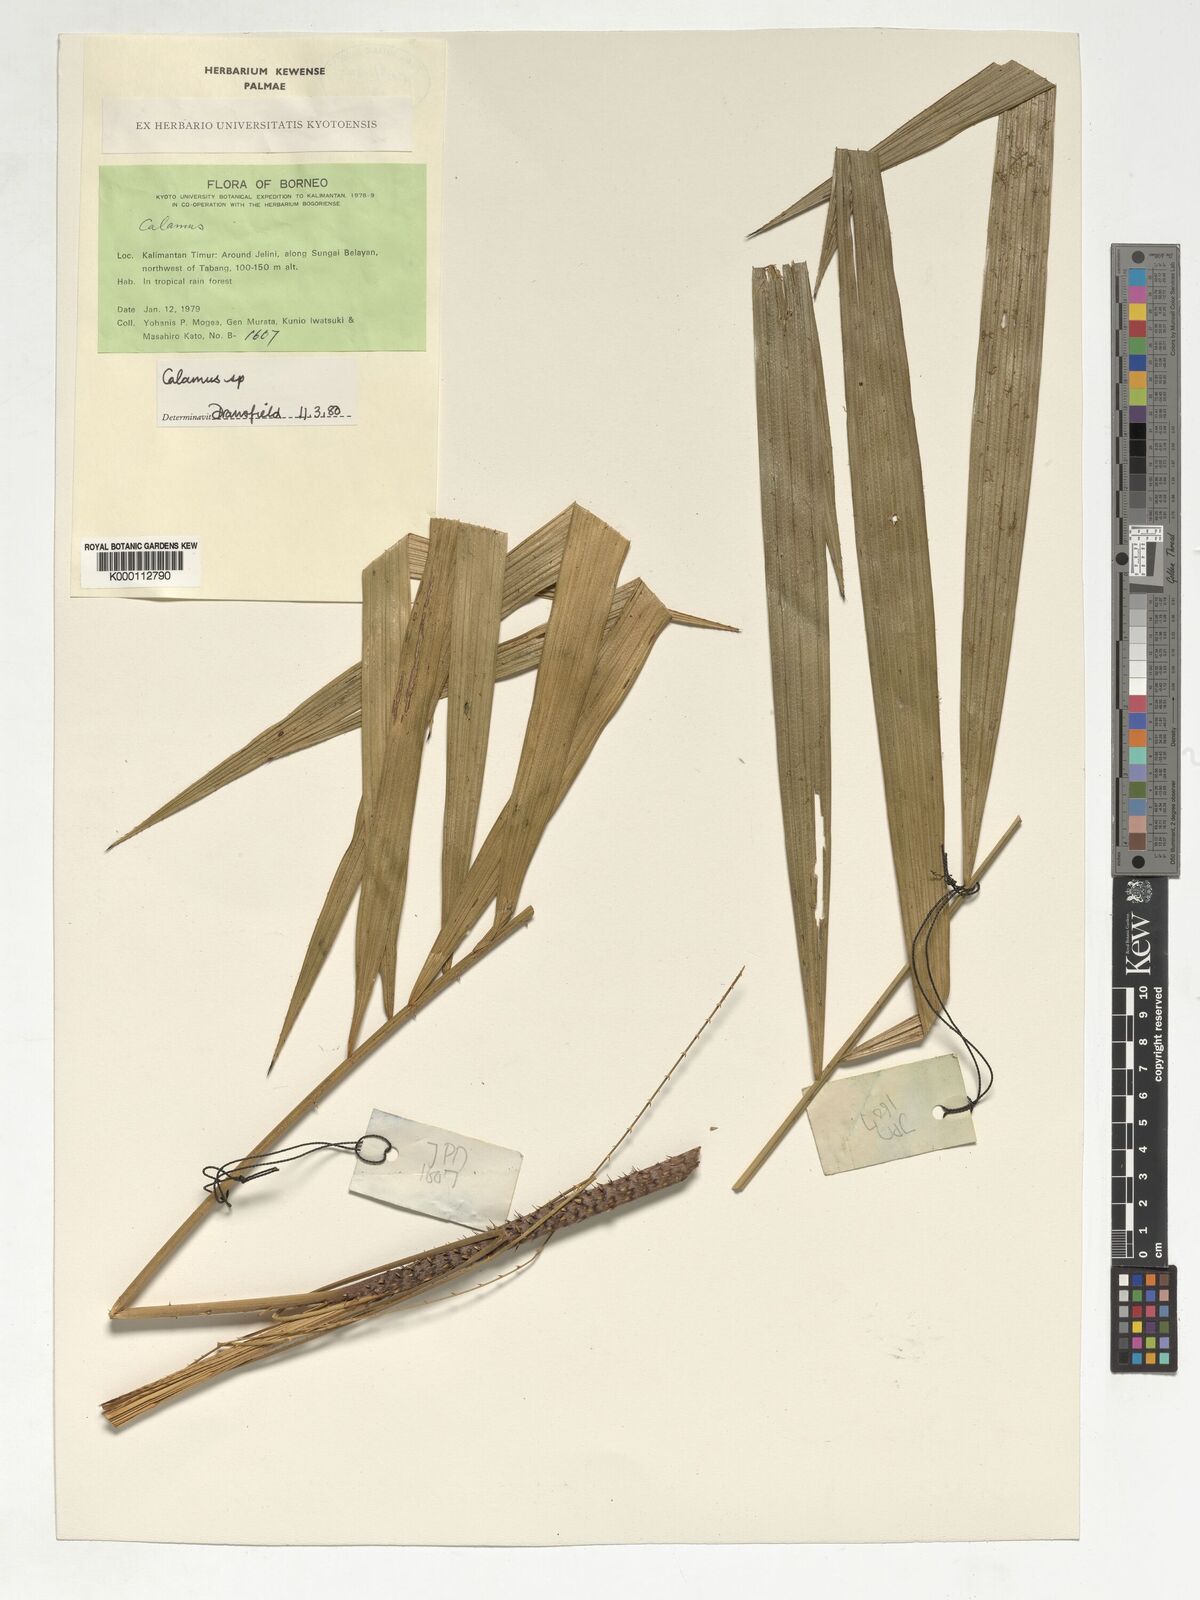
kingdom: Plantae
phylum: Tracheophyta
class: Liliopsida
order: Arecales
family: Arecaceae
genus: Calamus
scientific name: Calamus
